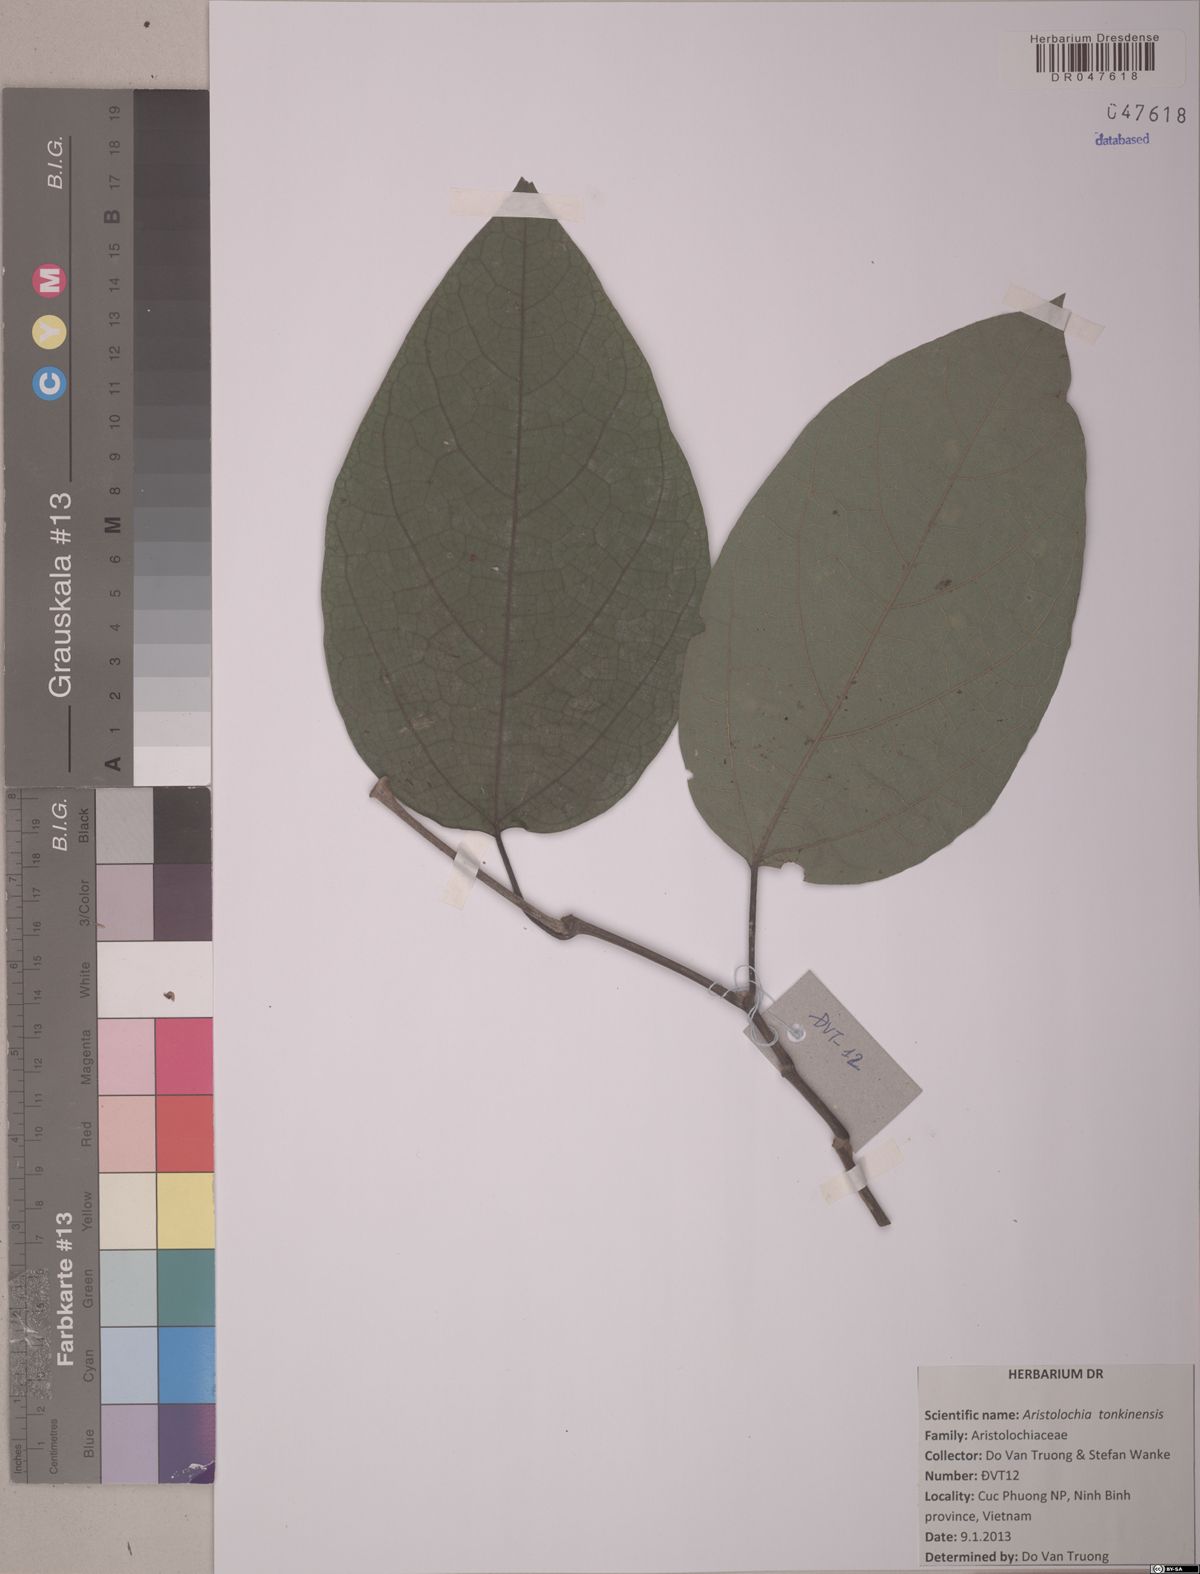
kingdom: Plantae
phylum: Tracheophyta
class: Magnoliopsida
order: Piperales
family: Aristolochiaceae
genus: Isotrema
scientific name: Isotrema tonkinense
